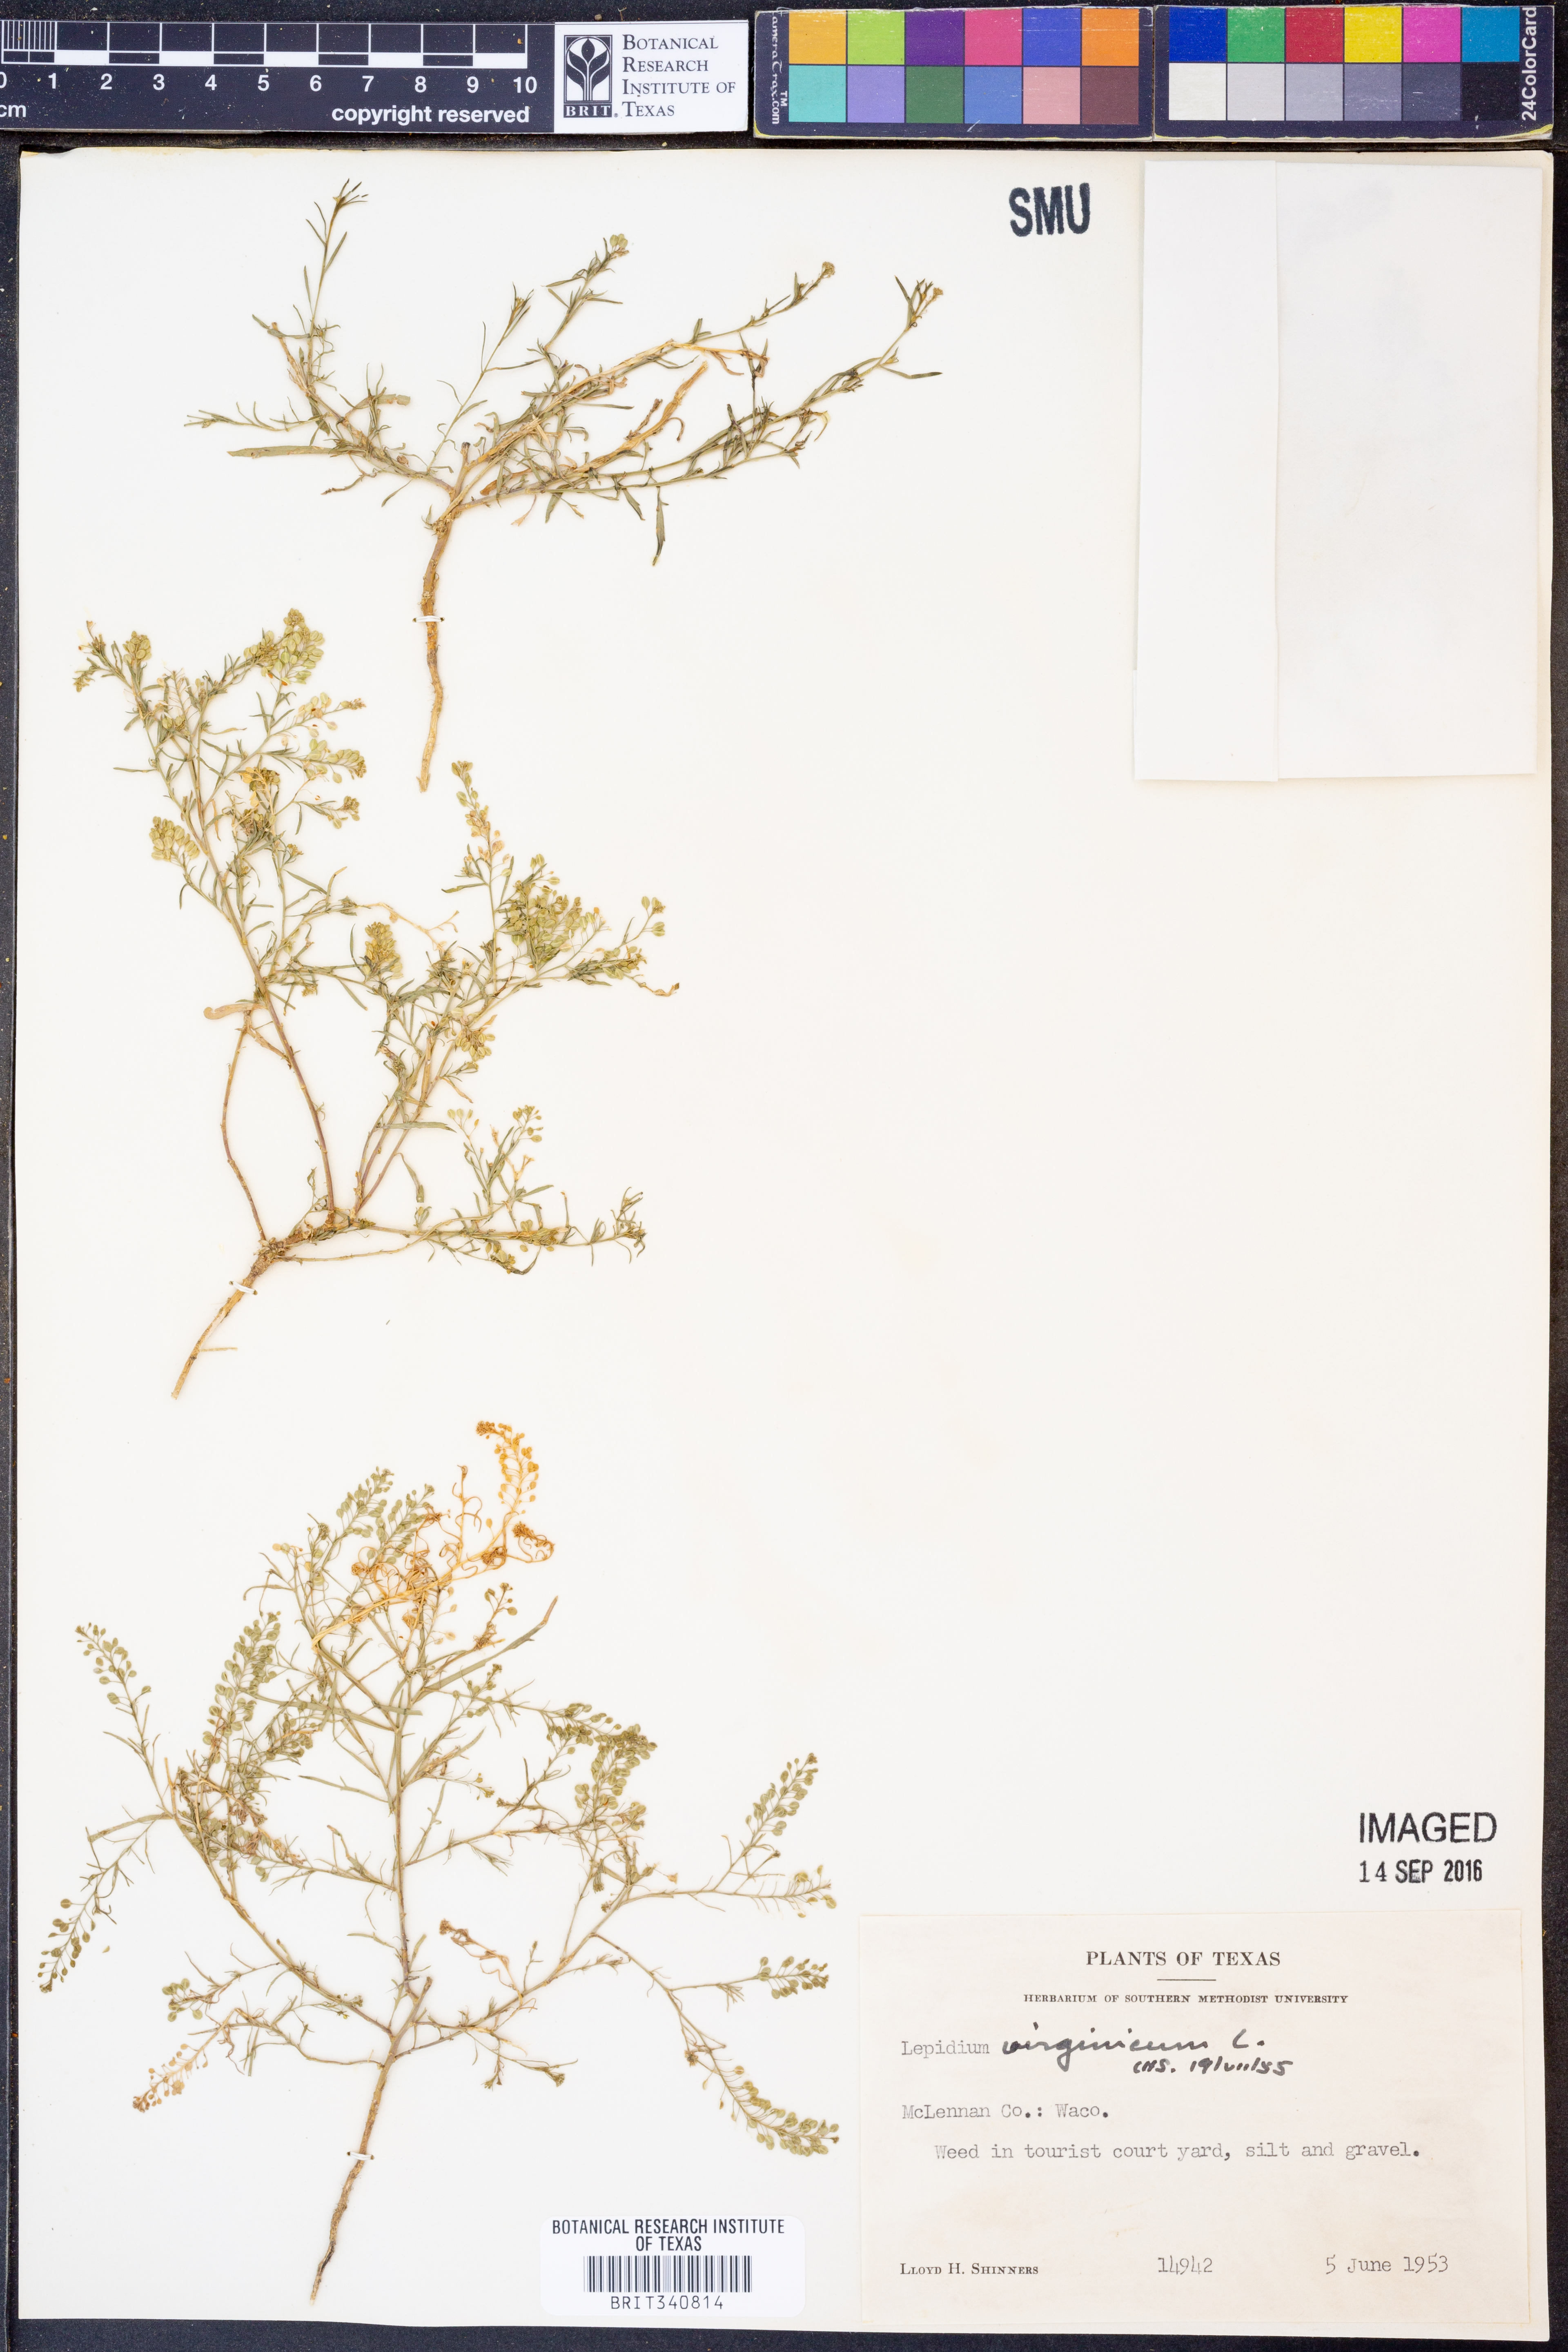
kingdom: Plantae
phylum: Tracheophyta
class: Magnoliopsida
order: Brassicales
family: Brassicaceae
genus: Lepidium
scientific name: Lepidium virginicum
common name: Least pepperwort
